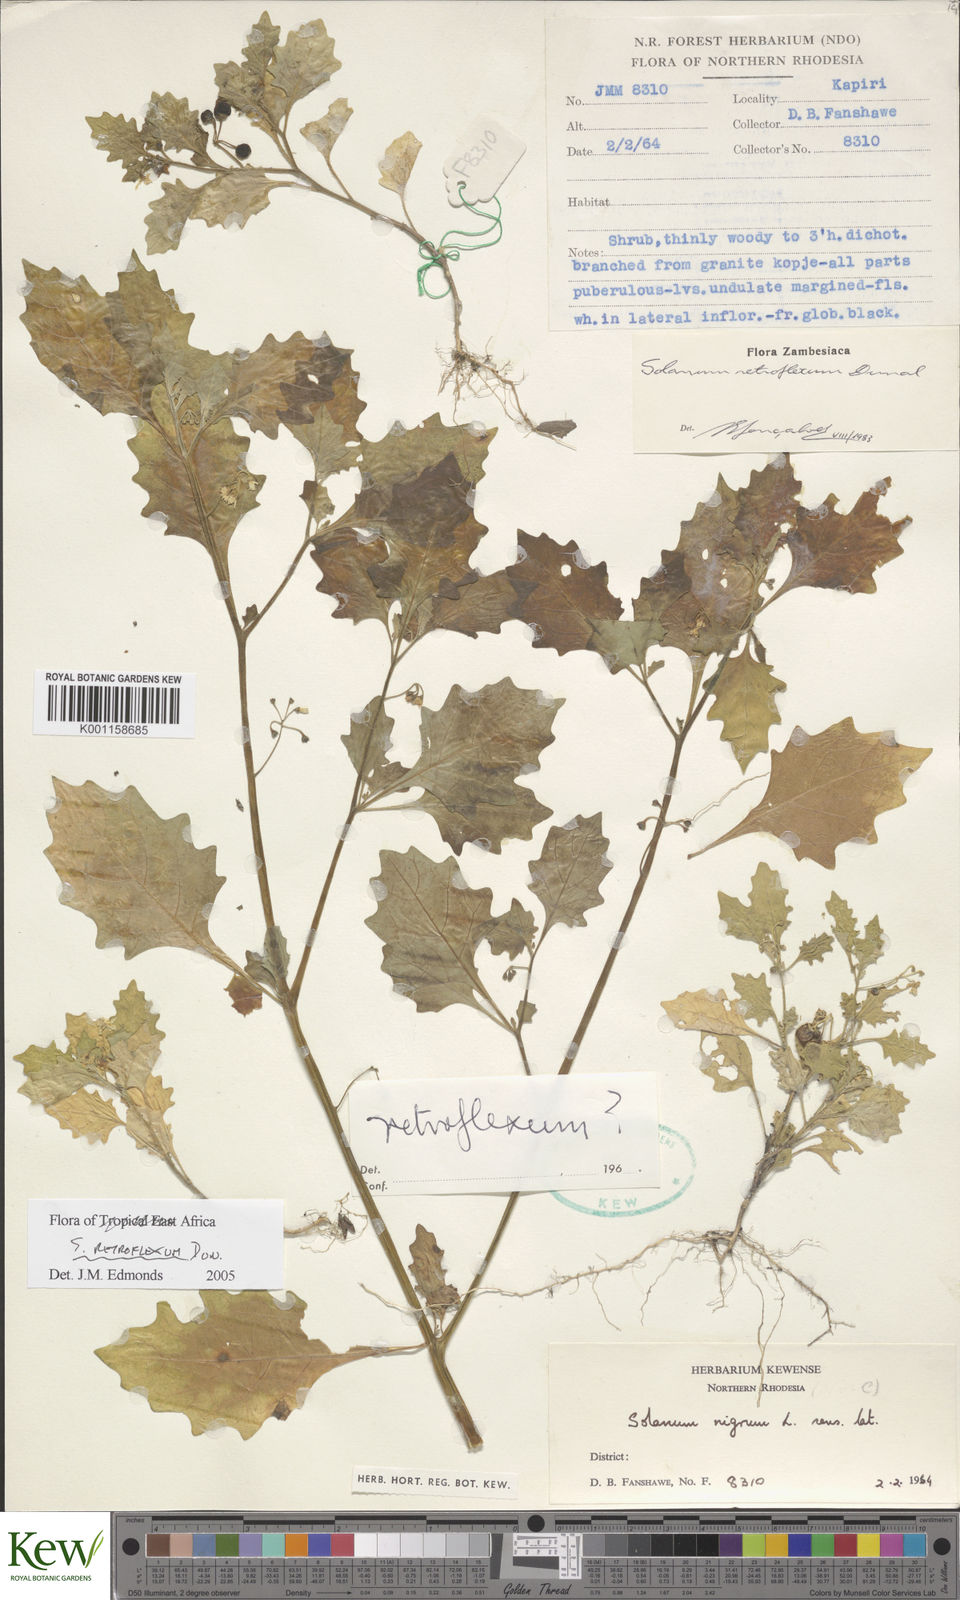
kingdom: Plantae
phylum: Tracheophyta
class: Magnoliopsida
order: Solanales
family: Solanaceae
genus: Solanum
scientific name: Solanum retroflexum
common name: Wonderberry
